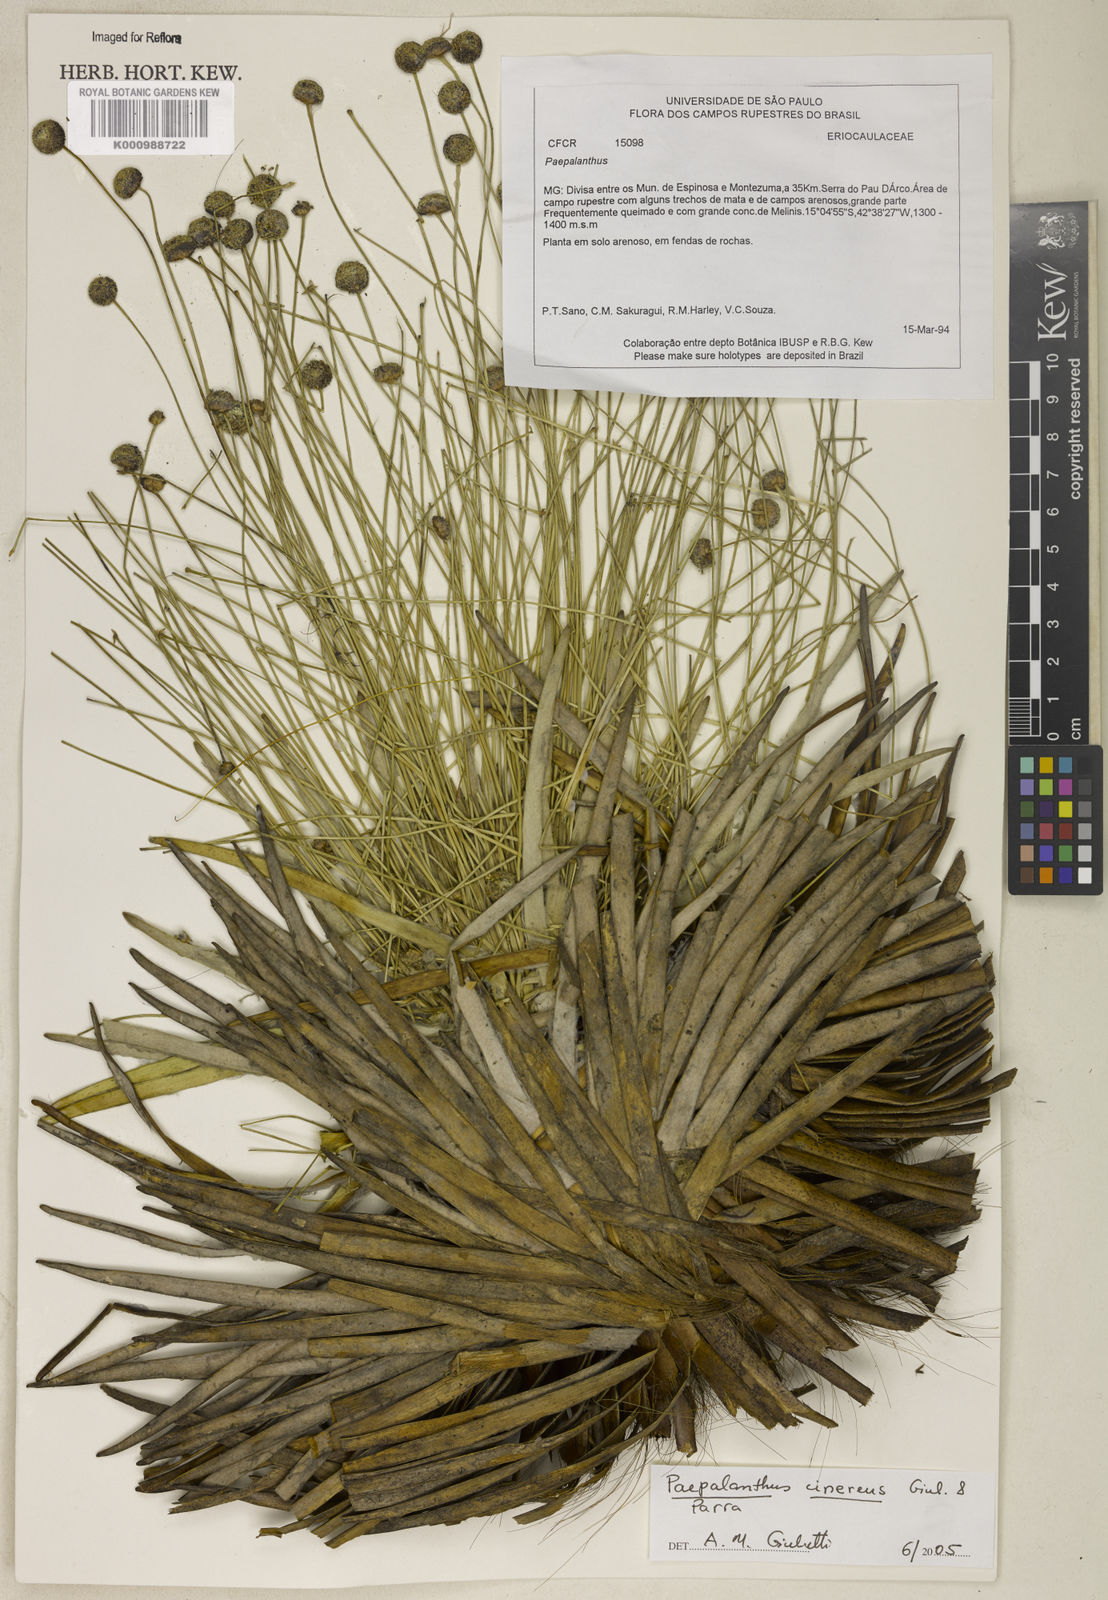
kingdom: Plantae
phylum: Tracheophyta
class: Liliopsida
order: Poales
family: Eriocaulaceae
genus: Paepalanthus
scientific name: Paepalanthus cinereus
